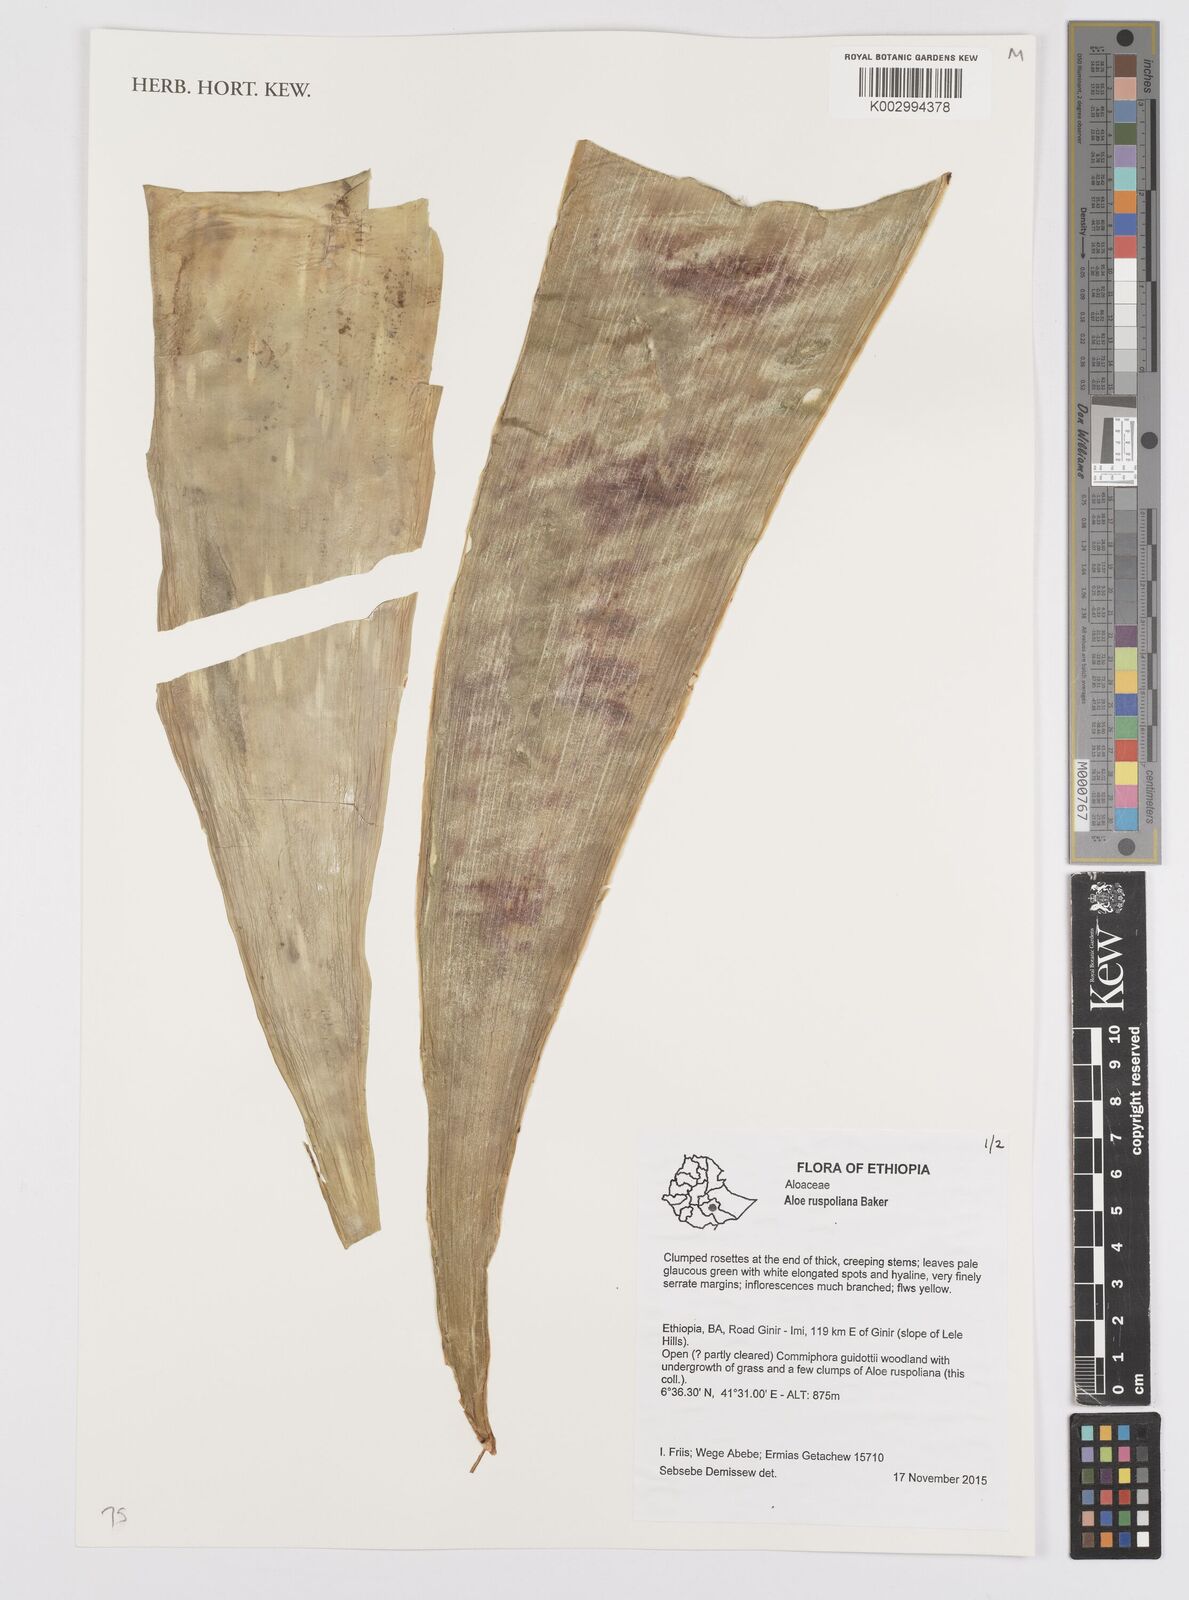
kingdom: Plantae
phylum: Tracheophyta
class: Liliopsida
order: Asparagales
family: Asphodelaceae
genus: Aloe
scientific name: Aloe ruspoliana
